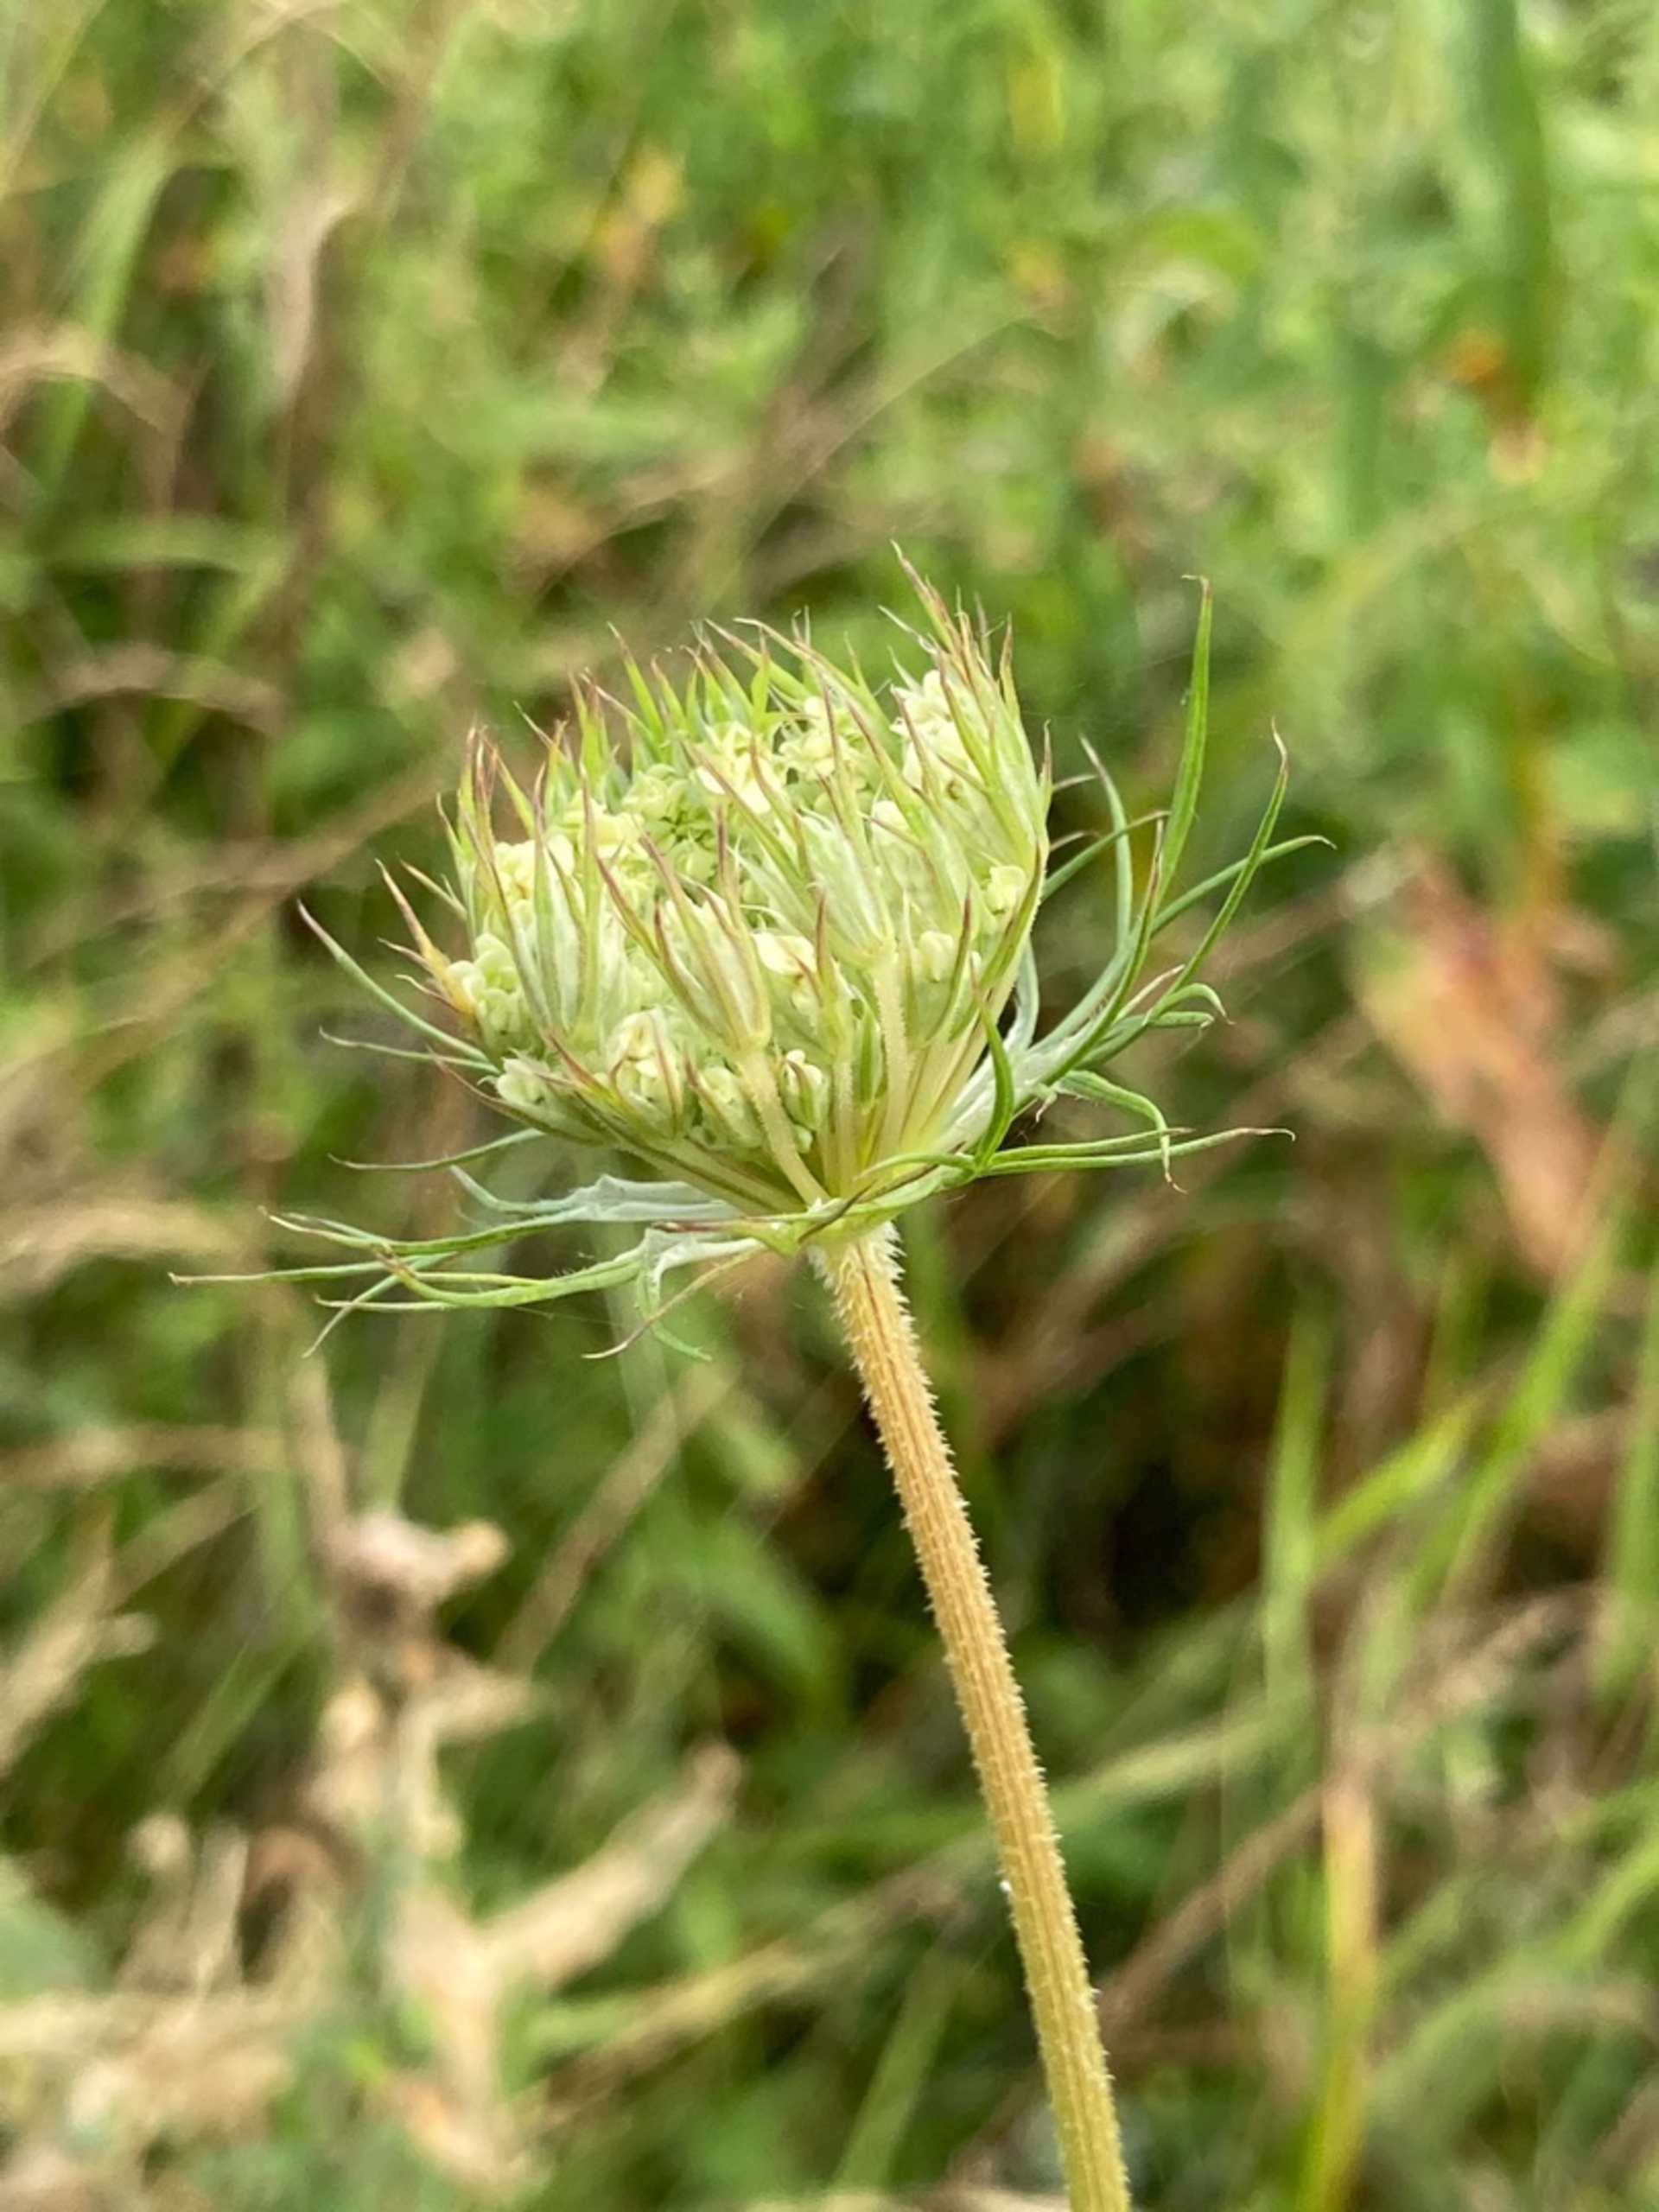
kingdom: Plantae
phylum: Tracheophyta
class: Magnoliopsida
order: Apiales
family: Apiaceae
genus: Daucus
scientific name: Daucus carota
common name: Vild gulerod
